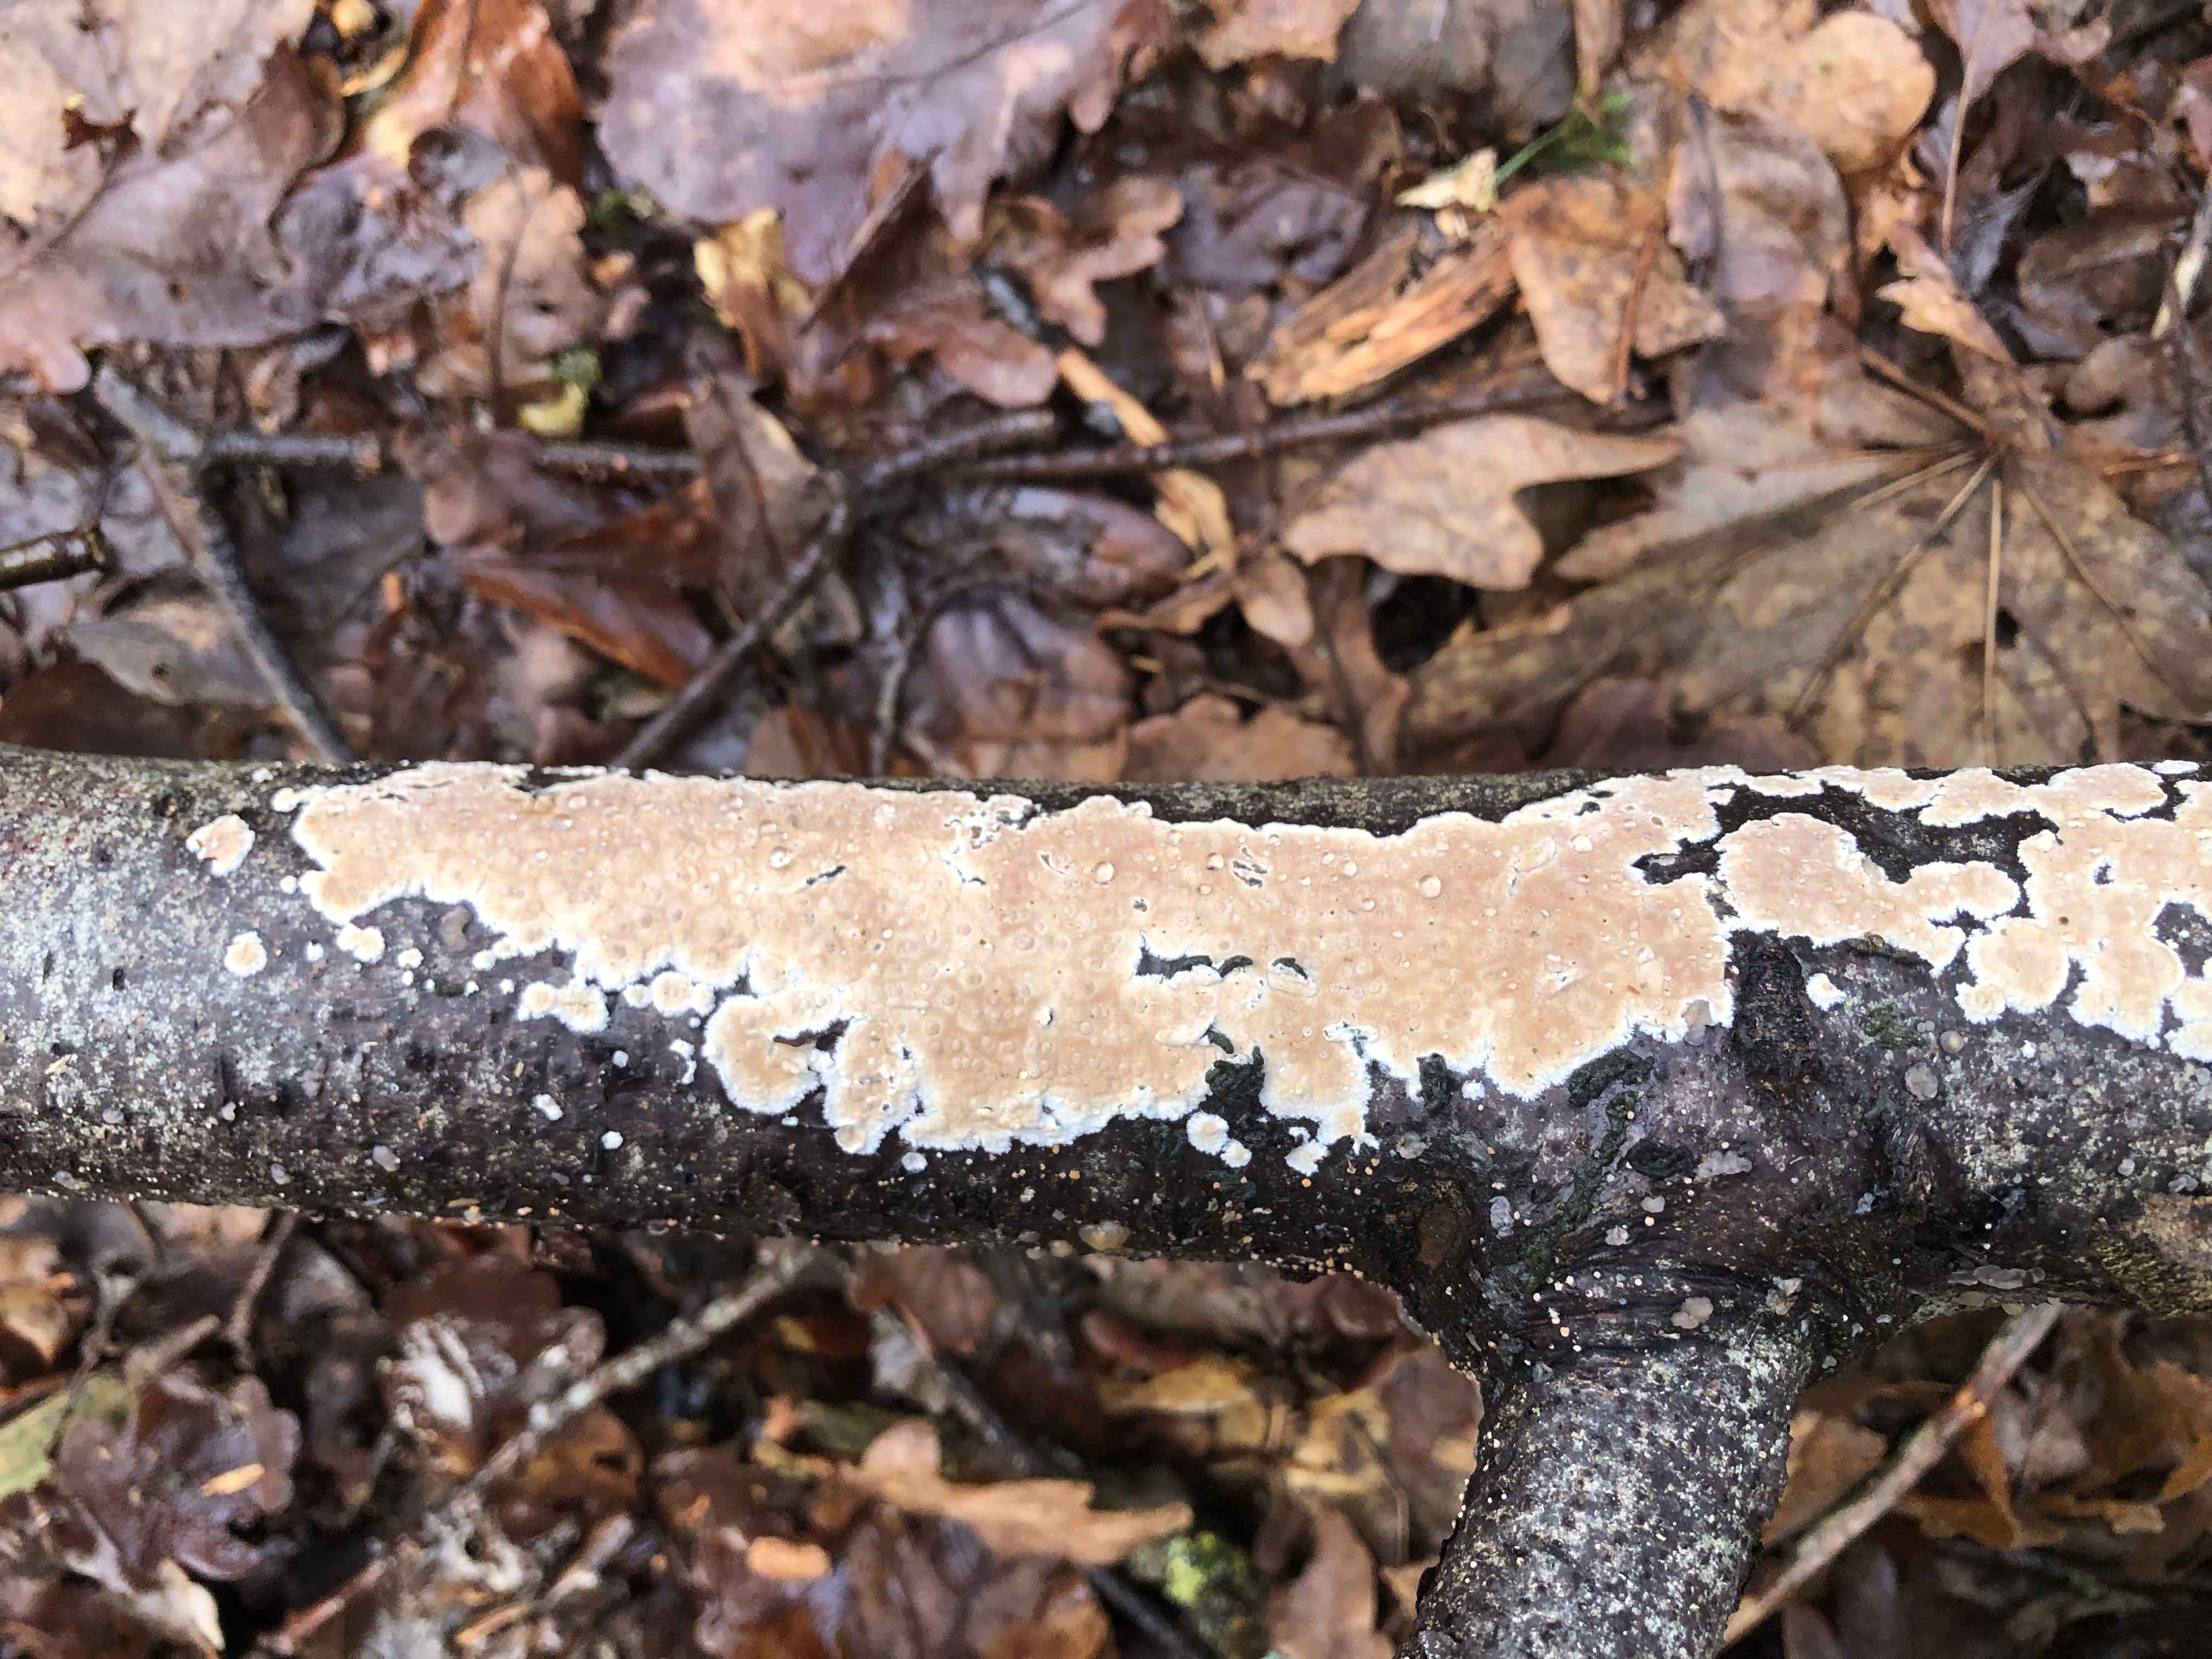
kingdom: Fungi
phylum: Basidiomycota
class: Agaricomycetes
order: Agaricales
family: Physalacriaceae
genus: Cylindrobasidium
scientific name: Cylindrobasidium evolvens
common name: sprækkehinde
